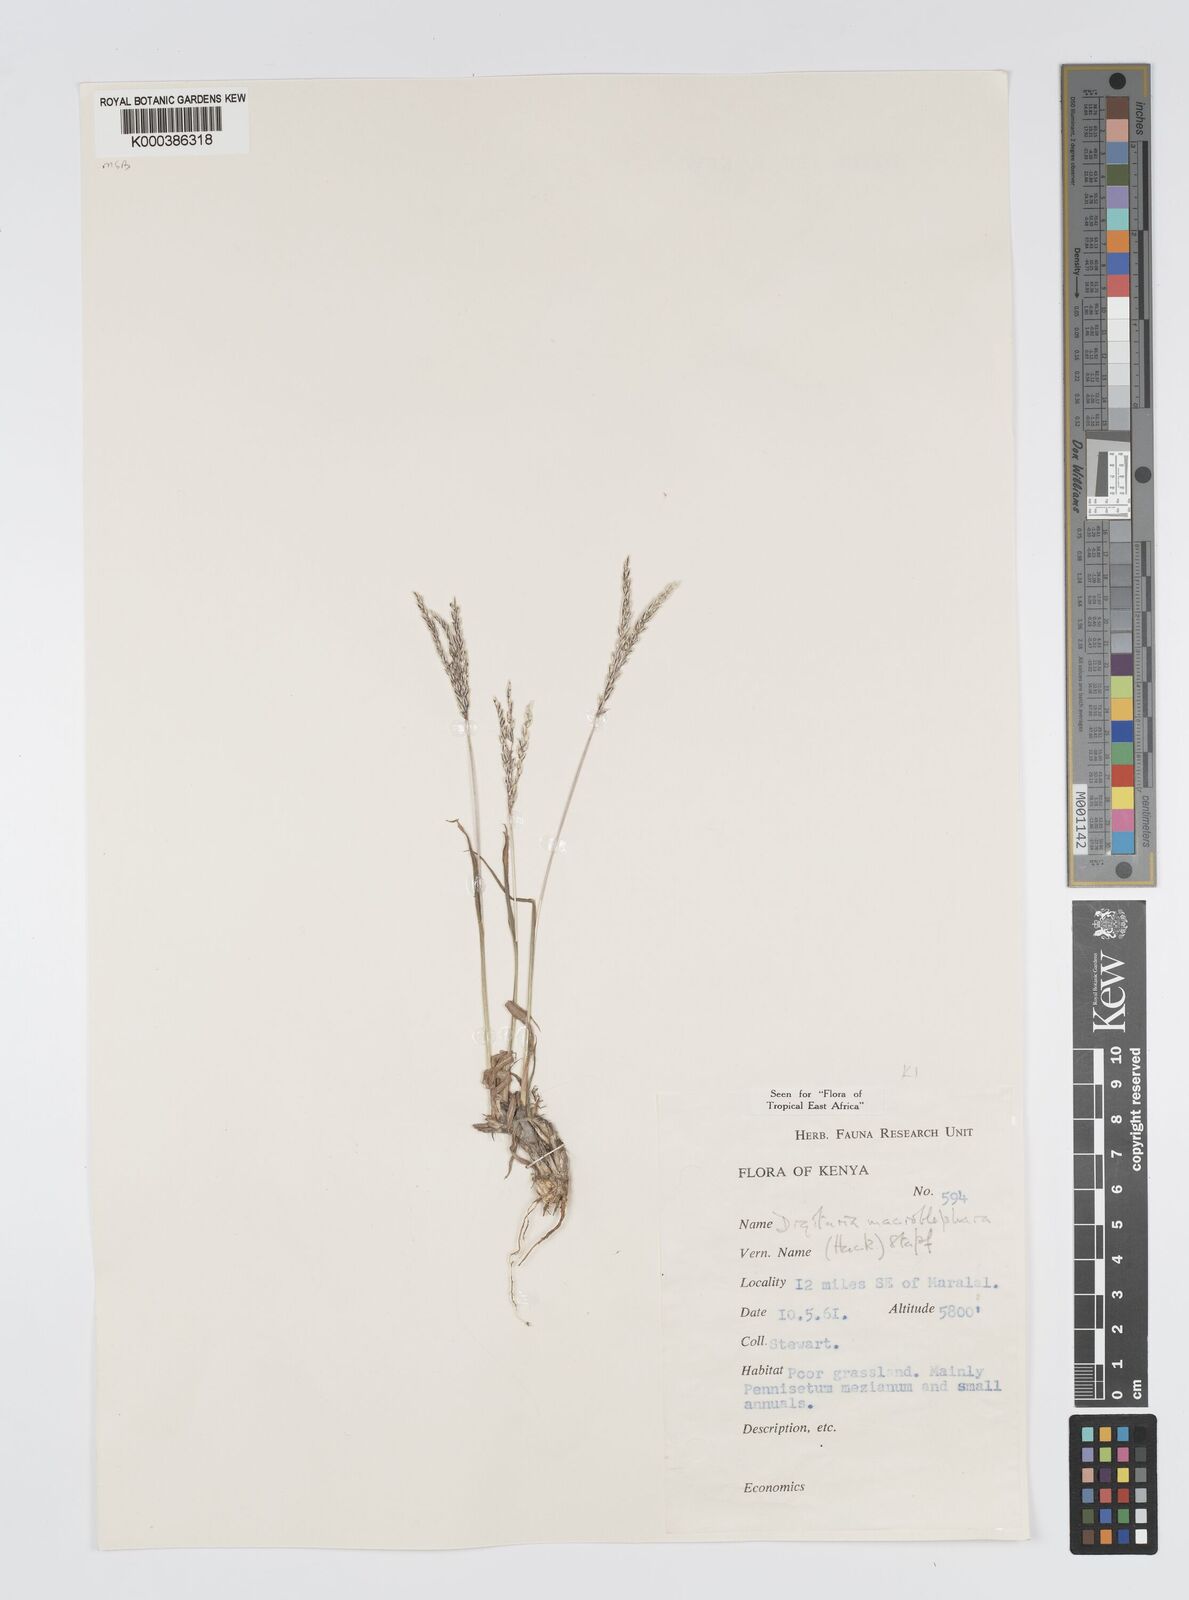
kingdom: Plantae
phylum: Tracheophyta
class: Liliopsida
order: Poales
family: Poaceae
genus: Digitaria
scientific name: Digitaria macroblephara
